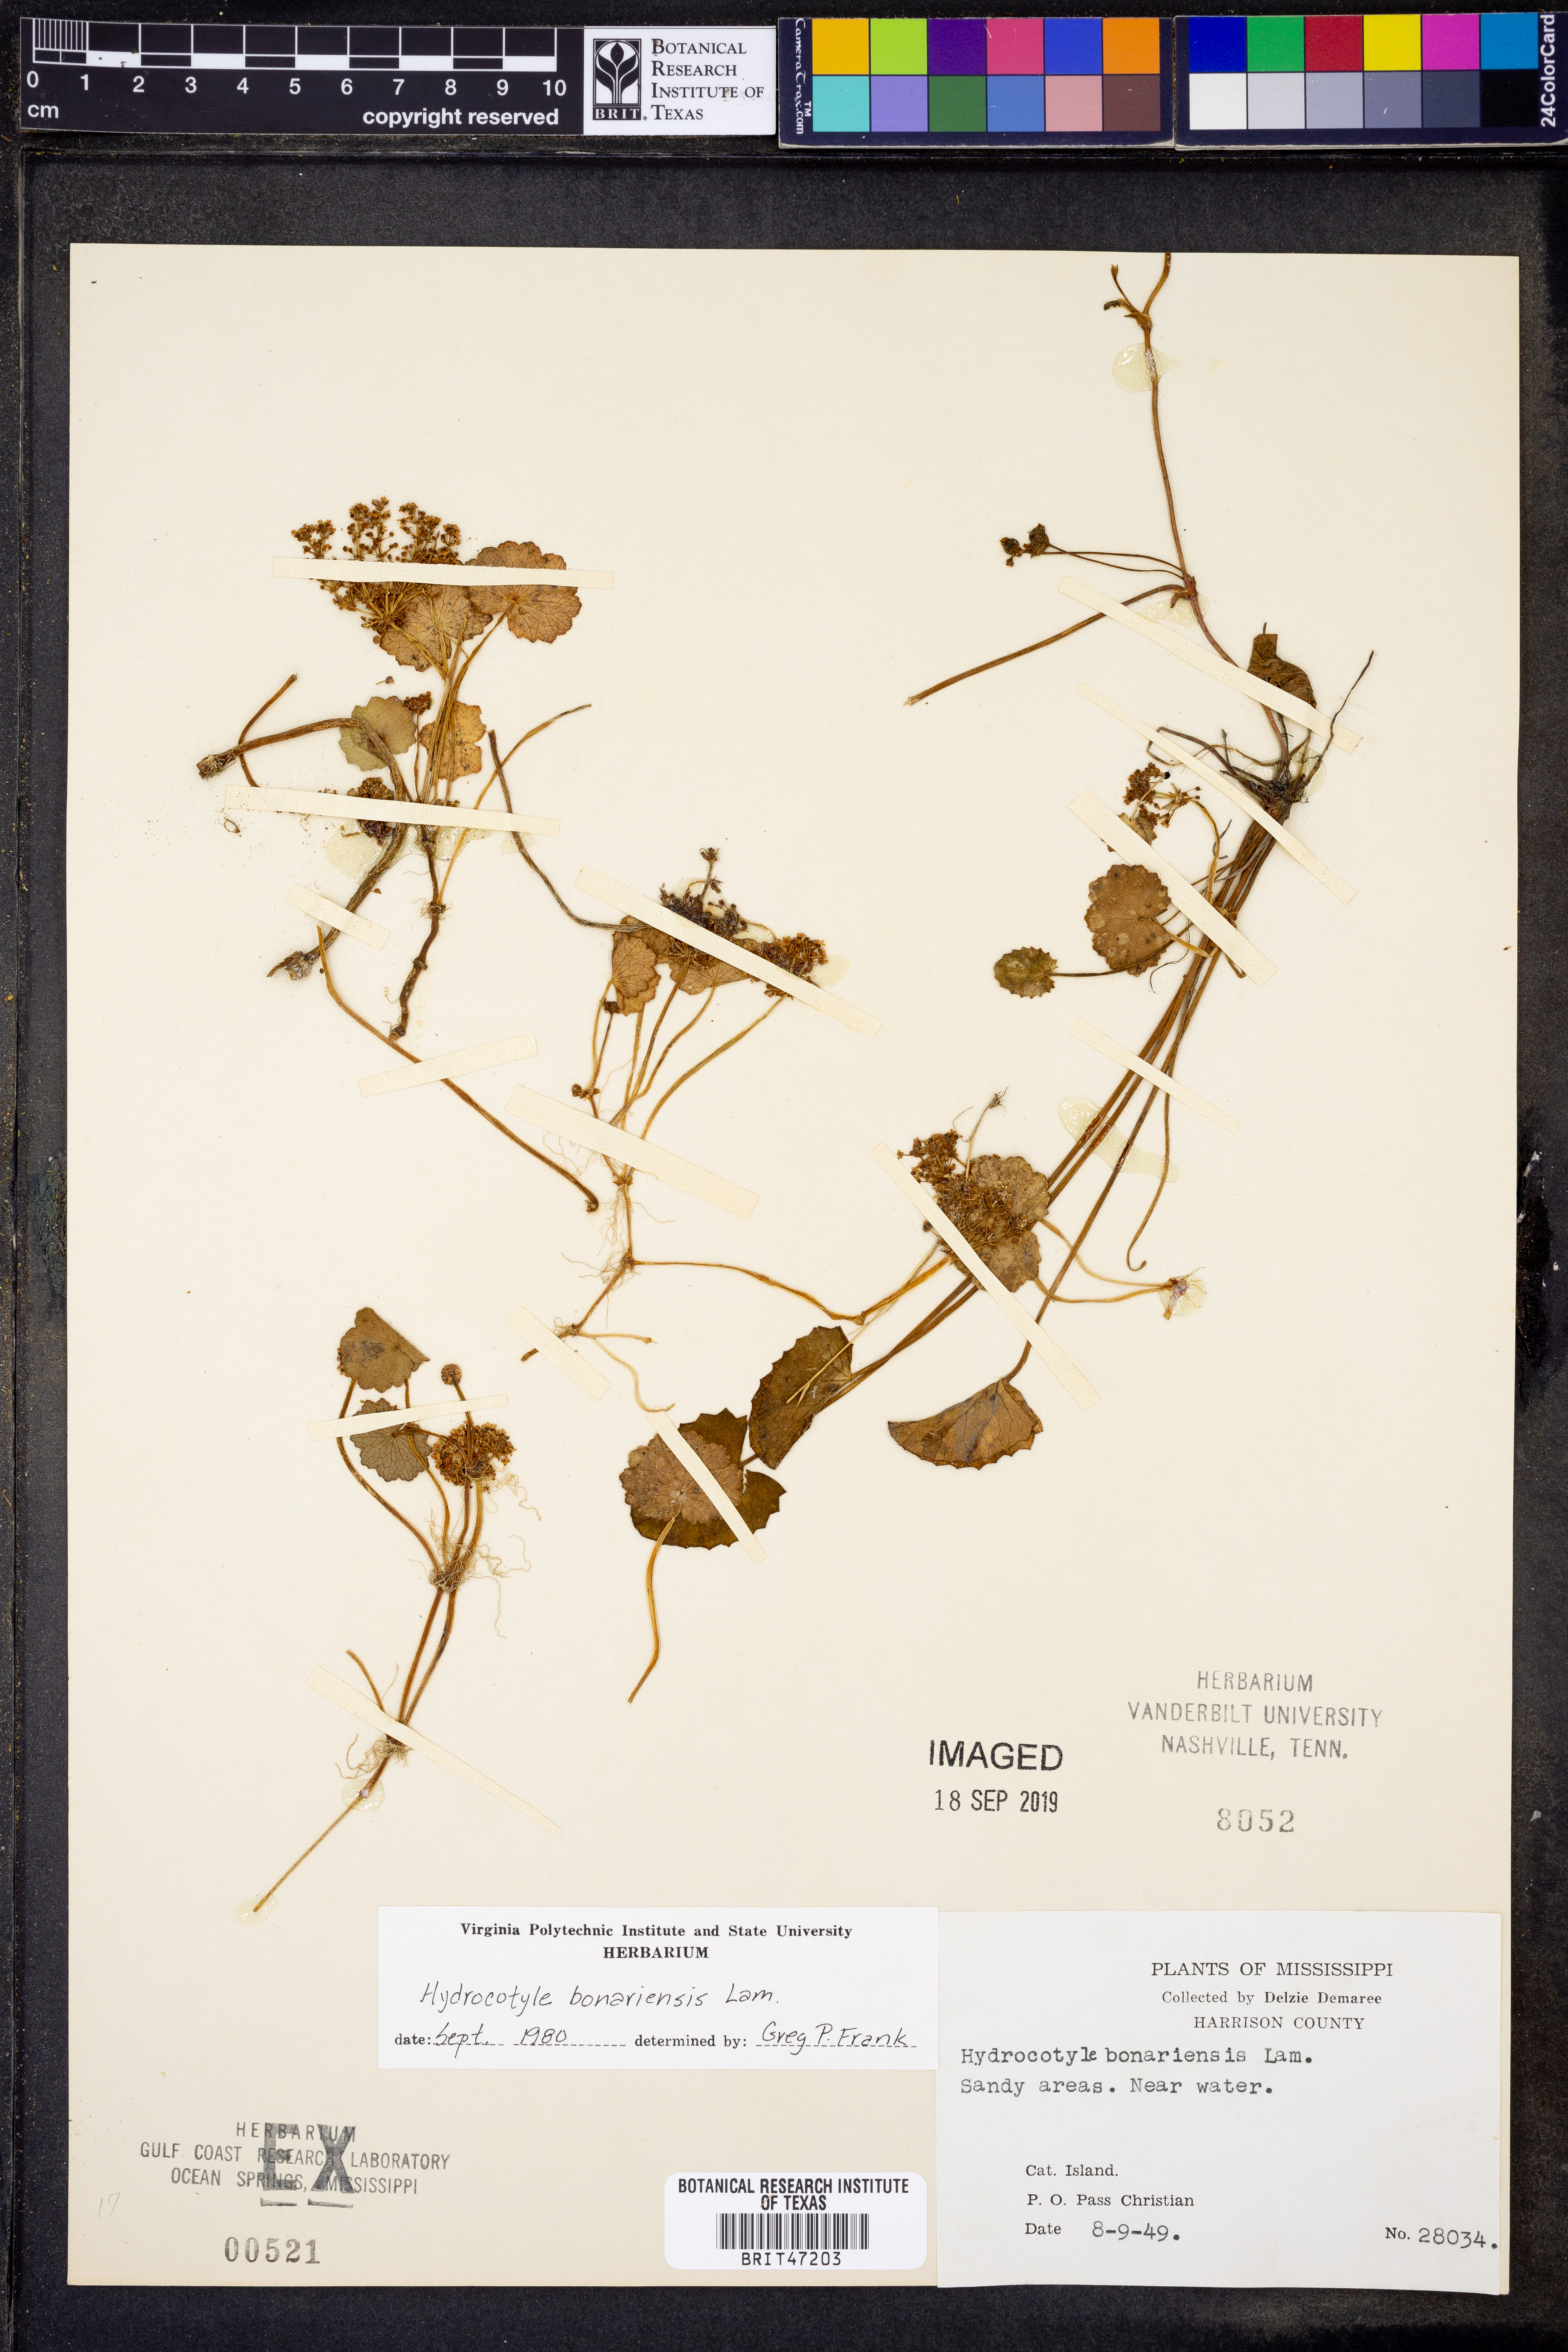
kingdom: Plantae
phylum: Tracheophyta
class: Magnoliopsida
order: Apiales
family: Araliaceae
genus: Hydrocotyle
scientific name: Hydrocotyle bonariensis
